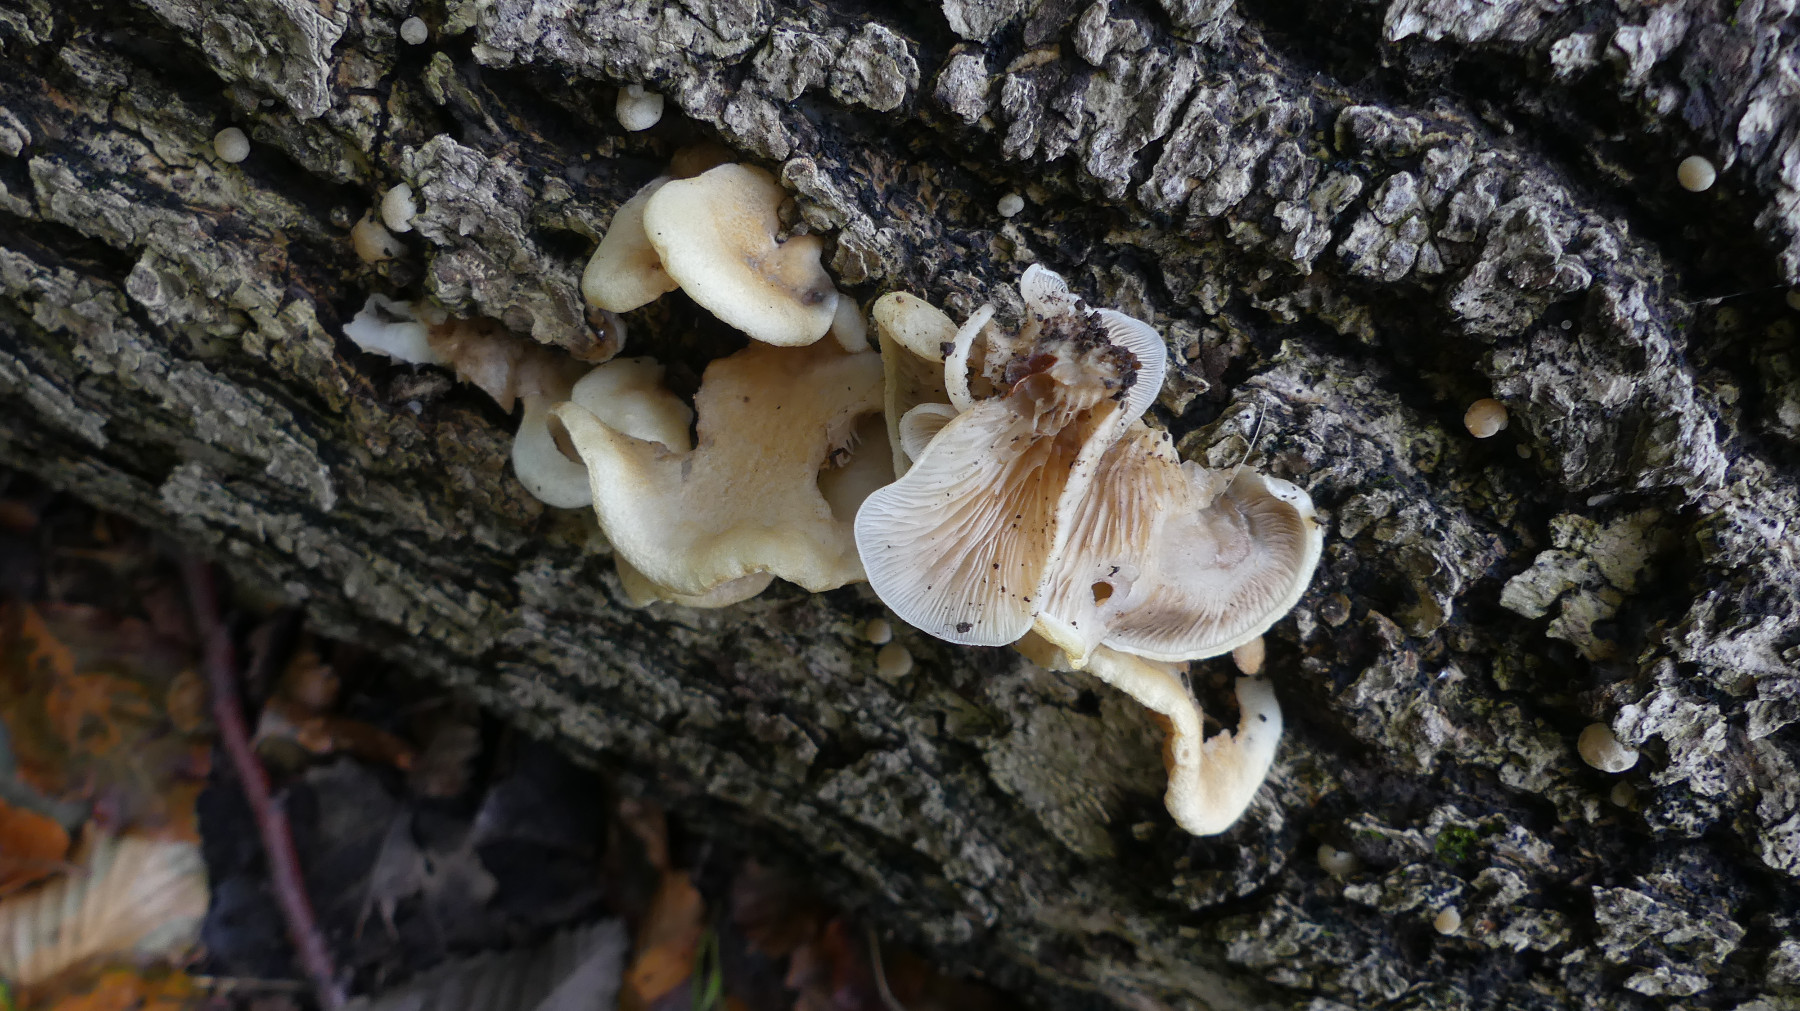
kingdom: Fungi
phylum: Basidiomycota
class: Agaricomycetes
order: Agaricales
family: Crepidotaceae
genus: Crepidotus
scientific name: Crepidotus mollis
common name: blød muslingesvamp
